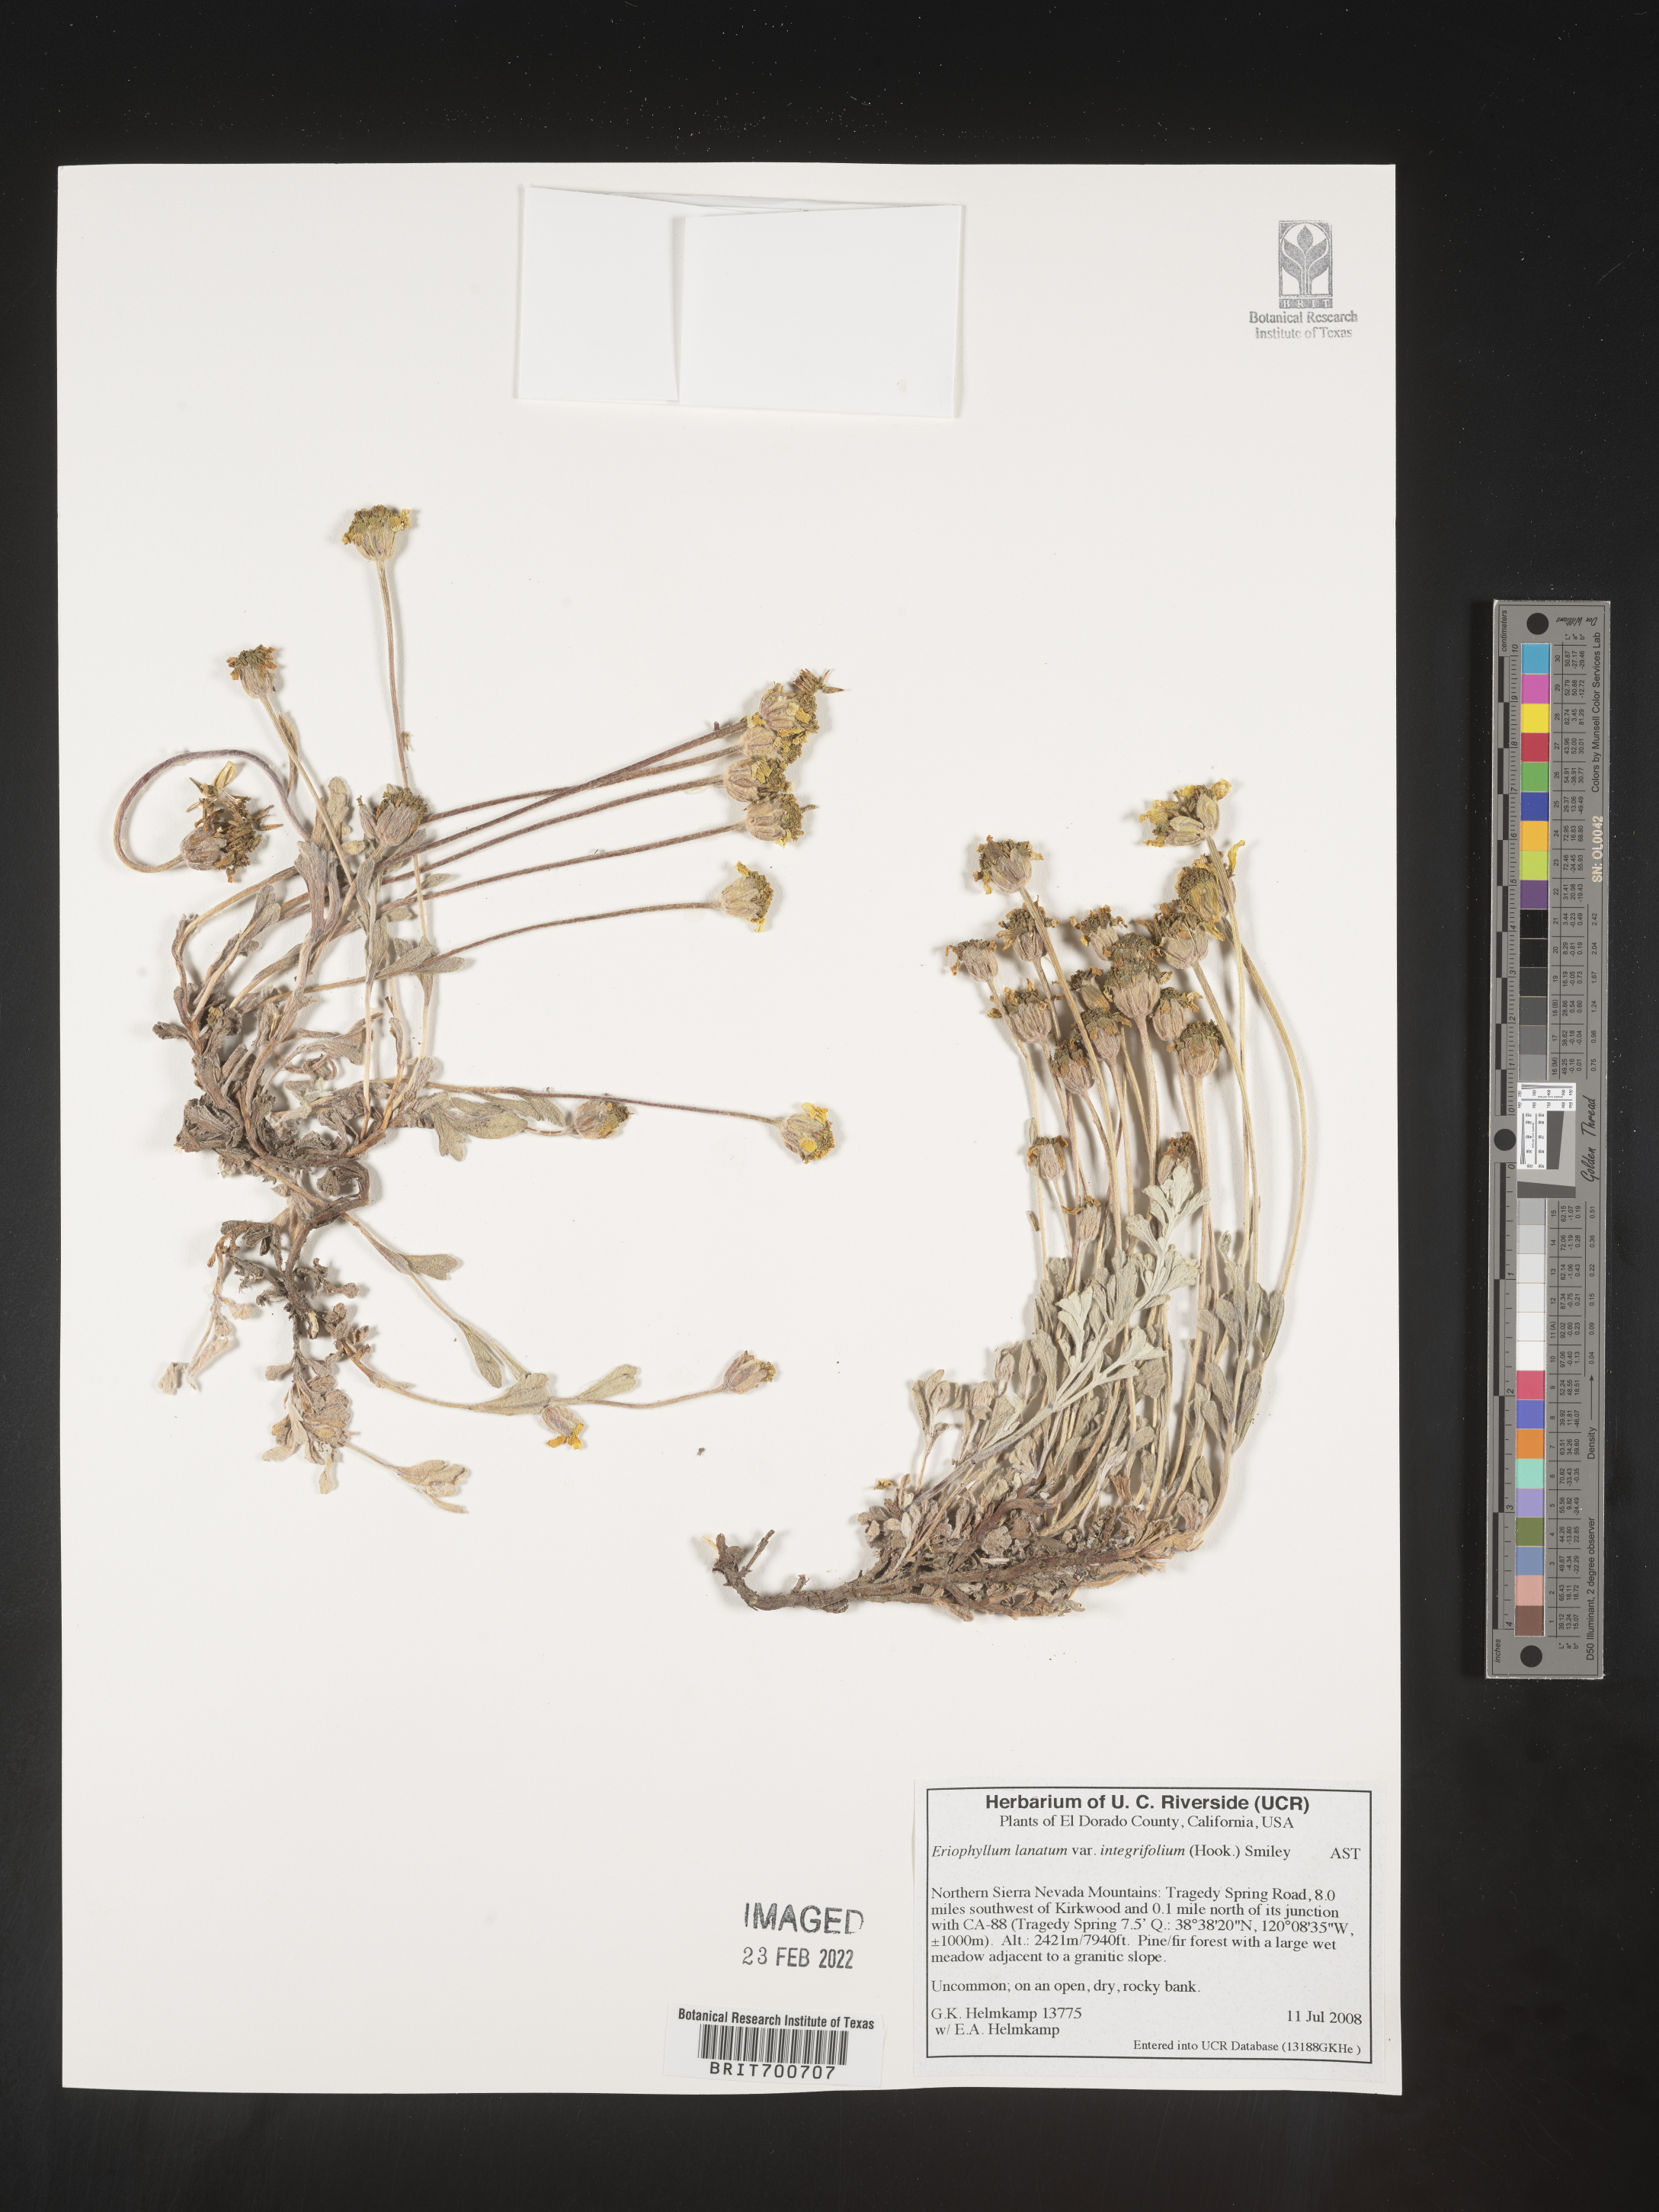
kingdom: Plantae
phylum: Tracheophyta
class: Magnoliopsida
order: Asterales
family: Asteraceae
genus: Eriophyllum
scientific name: Eriophyllum lanatum
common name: Common woolly-sunflower
